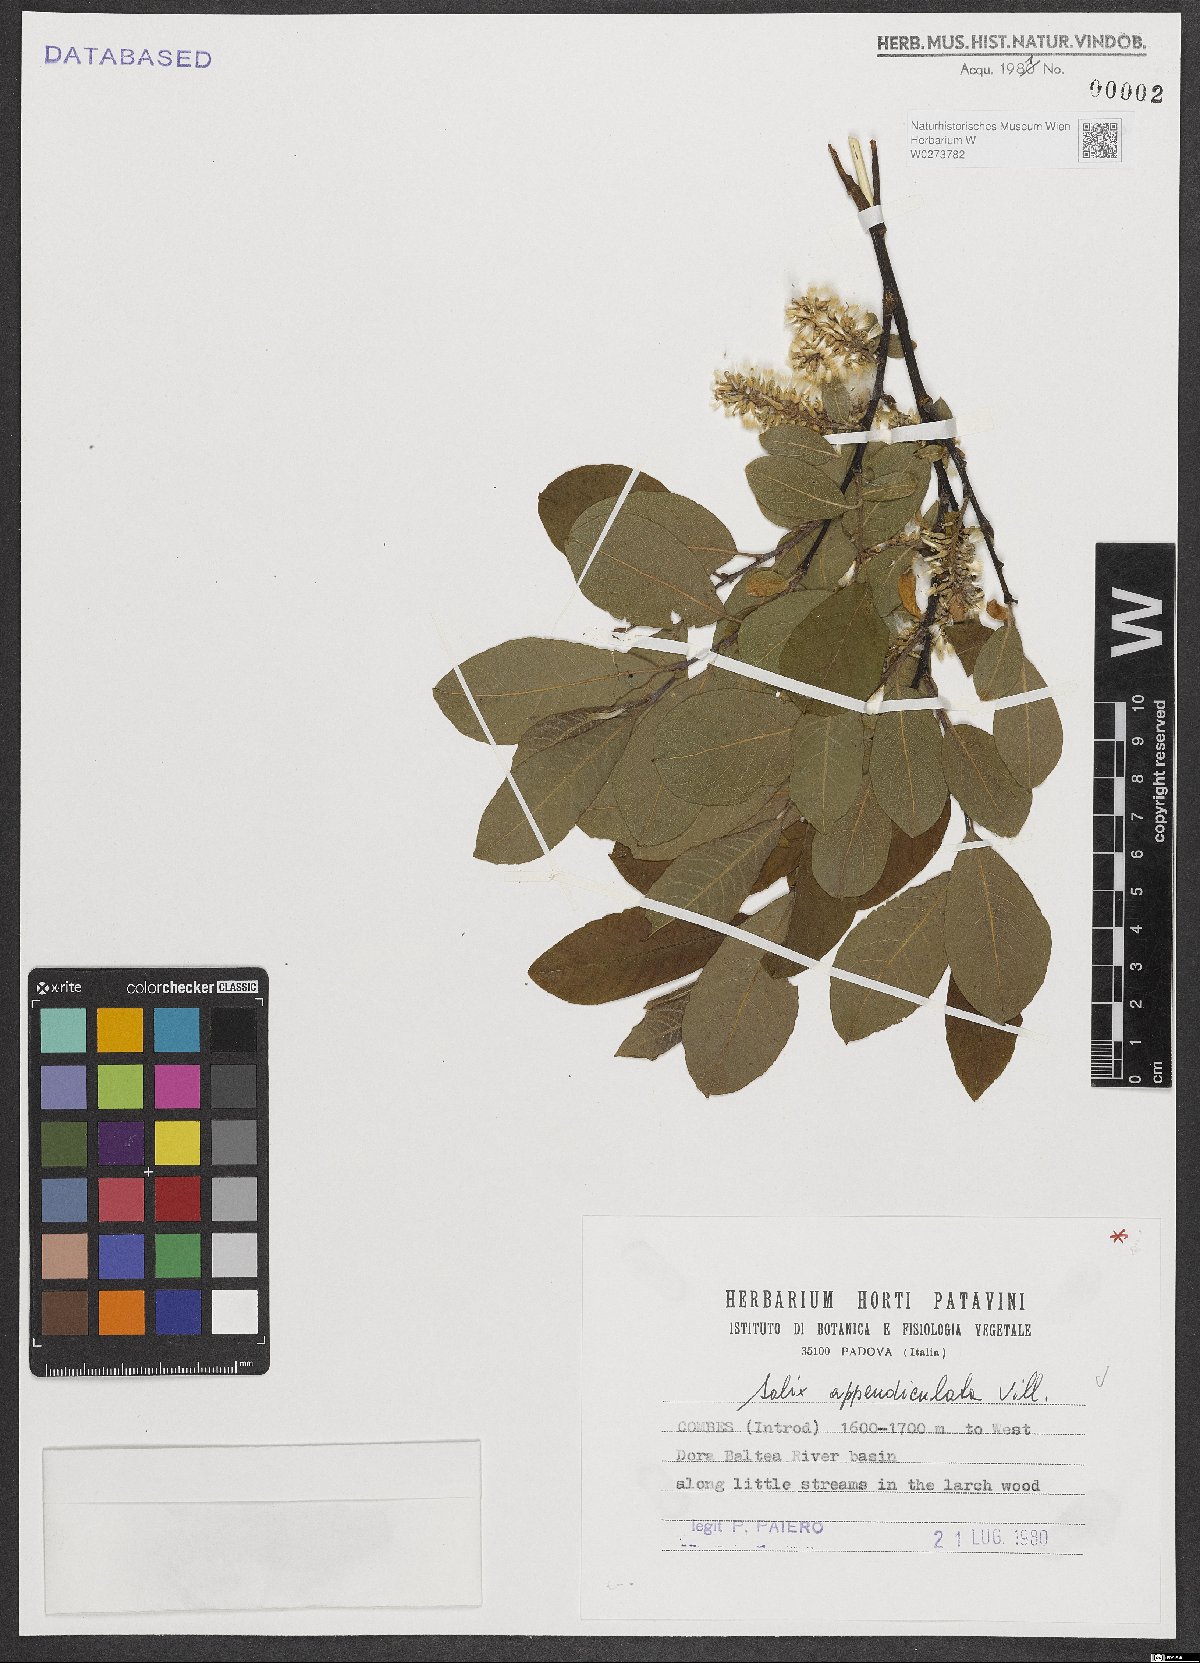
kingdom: Plantae
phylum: Tracheophyta
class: Magnoliopsida
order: Malpighiales
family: Salicaceae
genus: Salix
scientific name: Salix appendiculata
